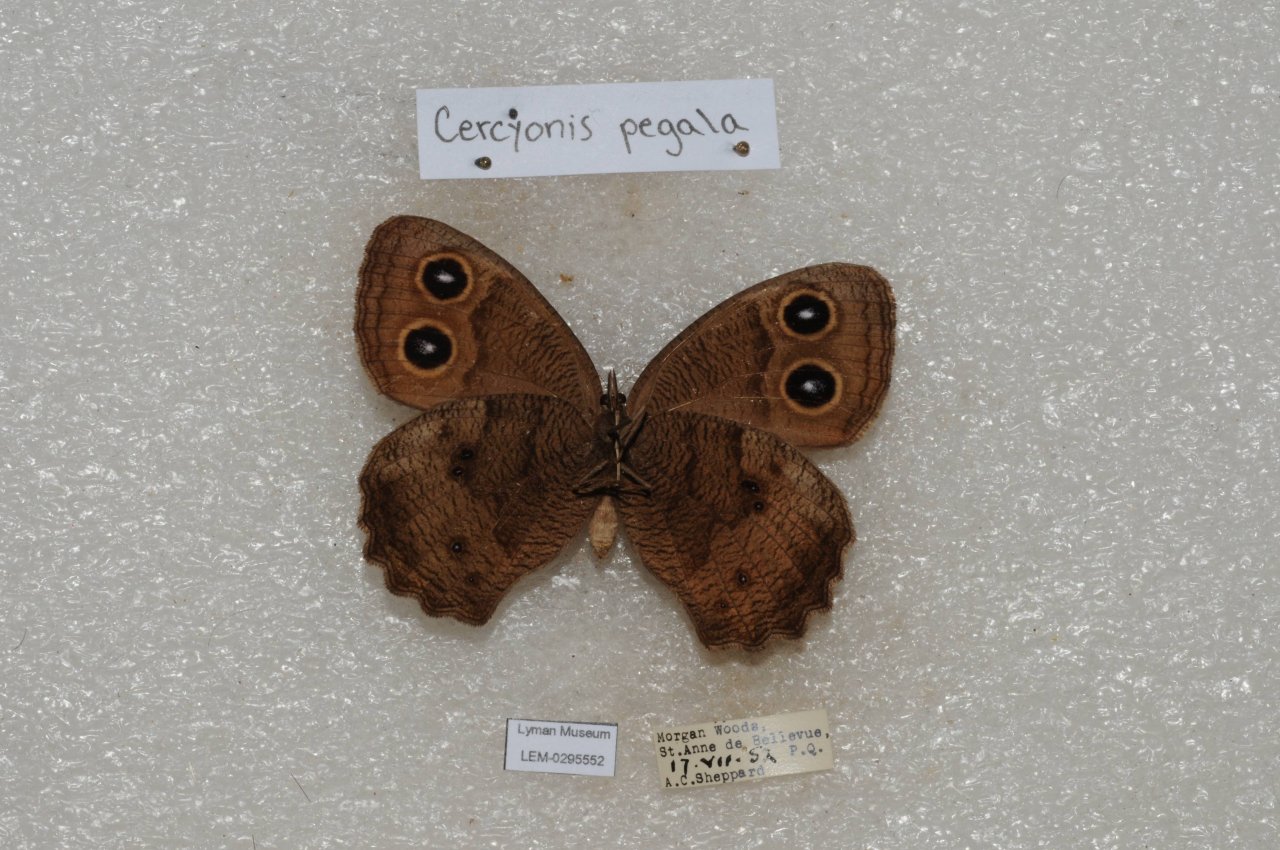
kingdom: Animalia
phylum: Arthropoda
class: Insecta
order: Lepidoptera
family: Nymphalidae
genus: Cercyonis
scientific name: Cercyonis pegala
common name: Common Wood-Nymph
